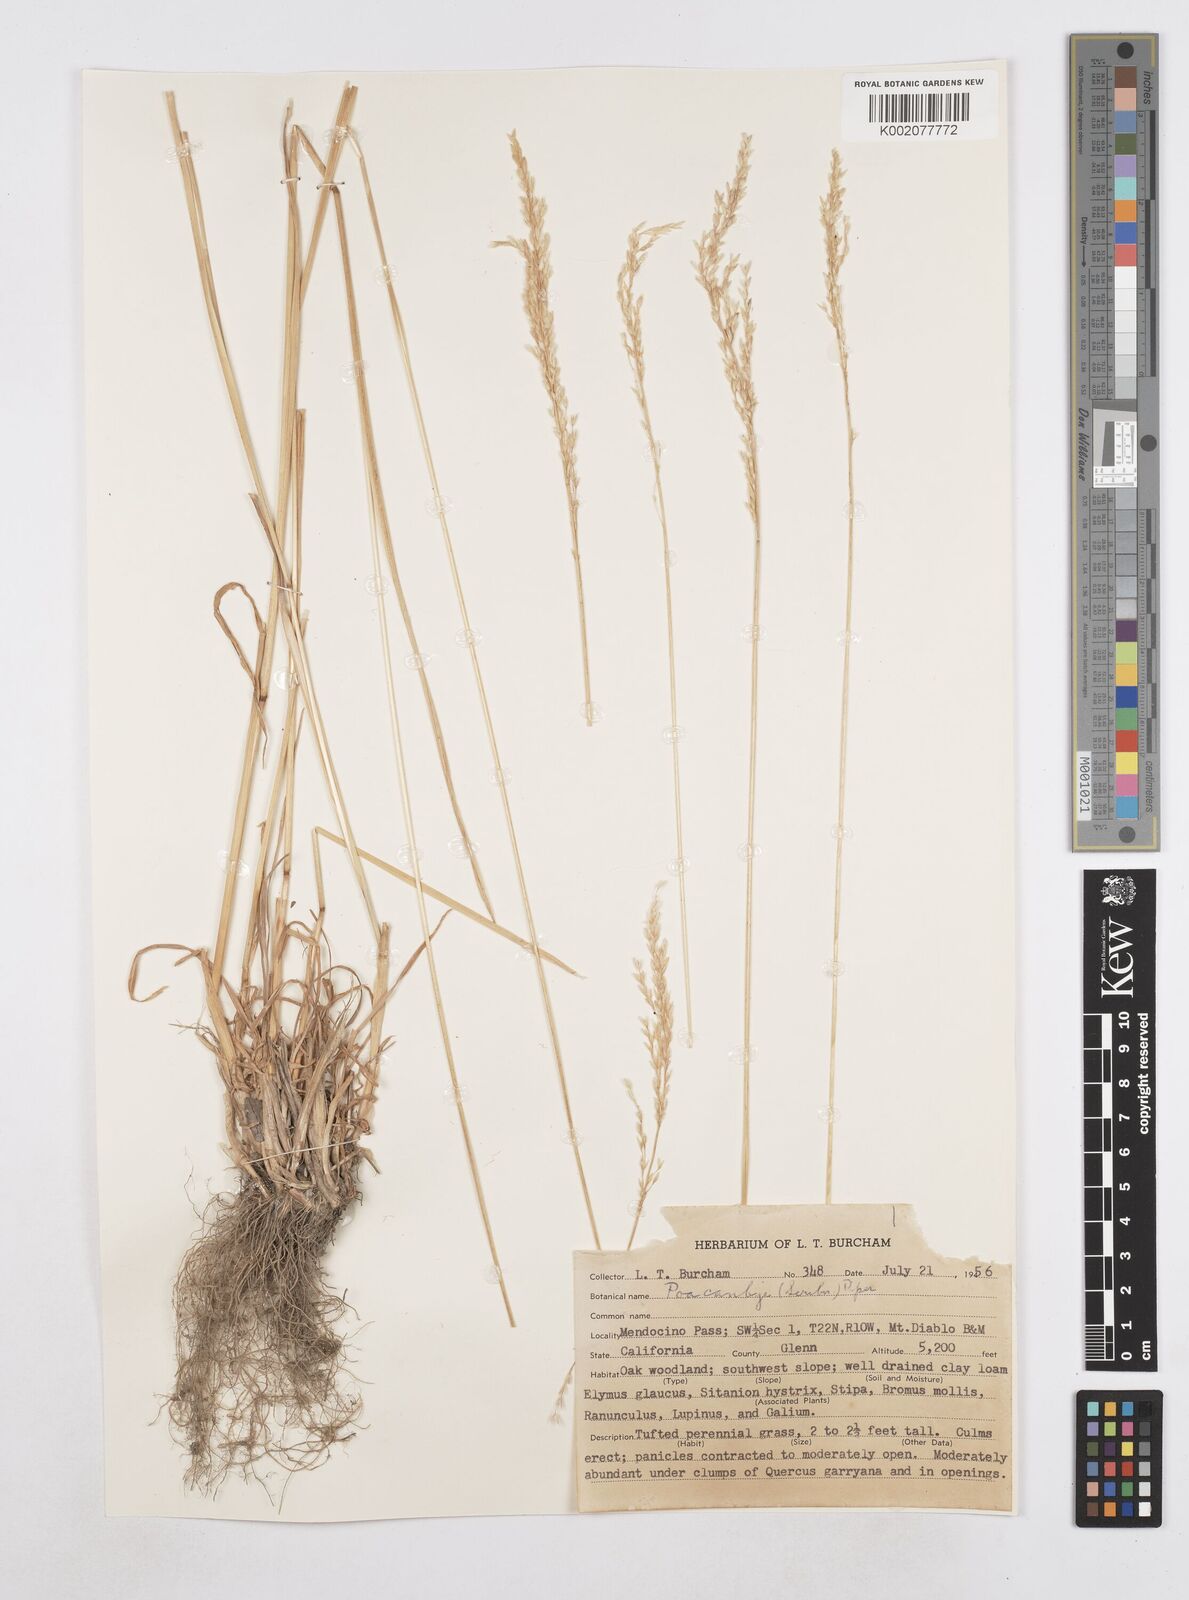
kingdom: Plantae
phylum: Tracheophyta
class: Liliopsida
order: Poales
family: Poaceae
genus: Poa
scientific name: Poa secunda
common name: Sandberg bluegrass
